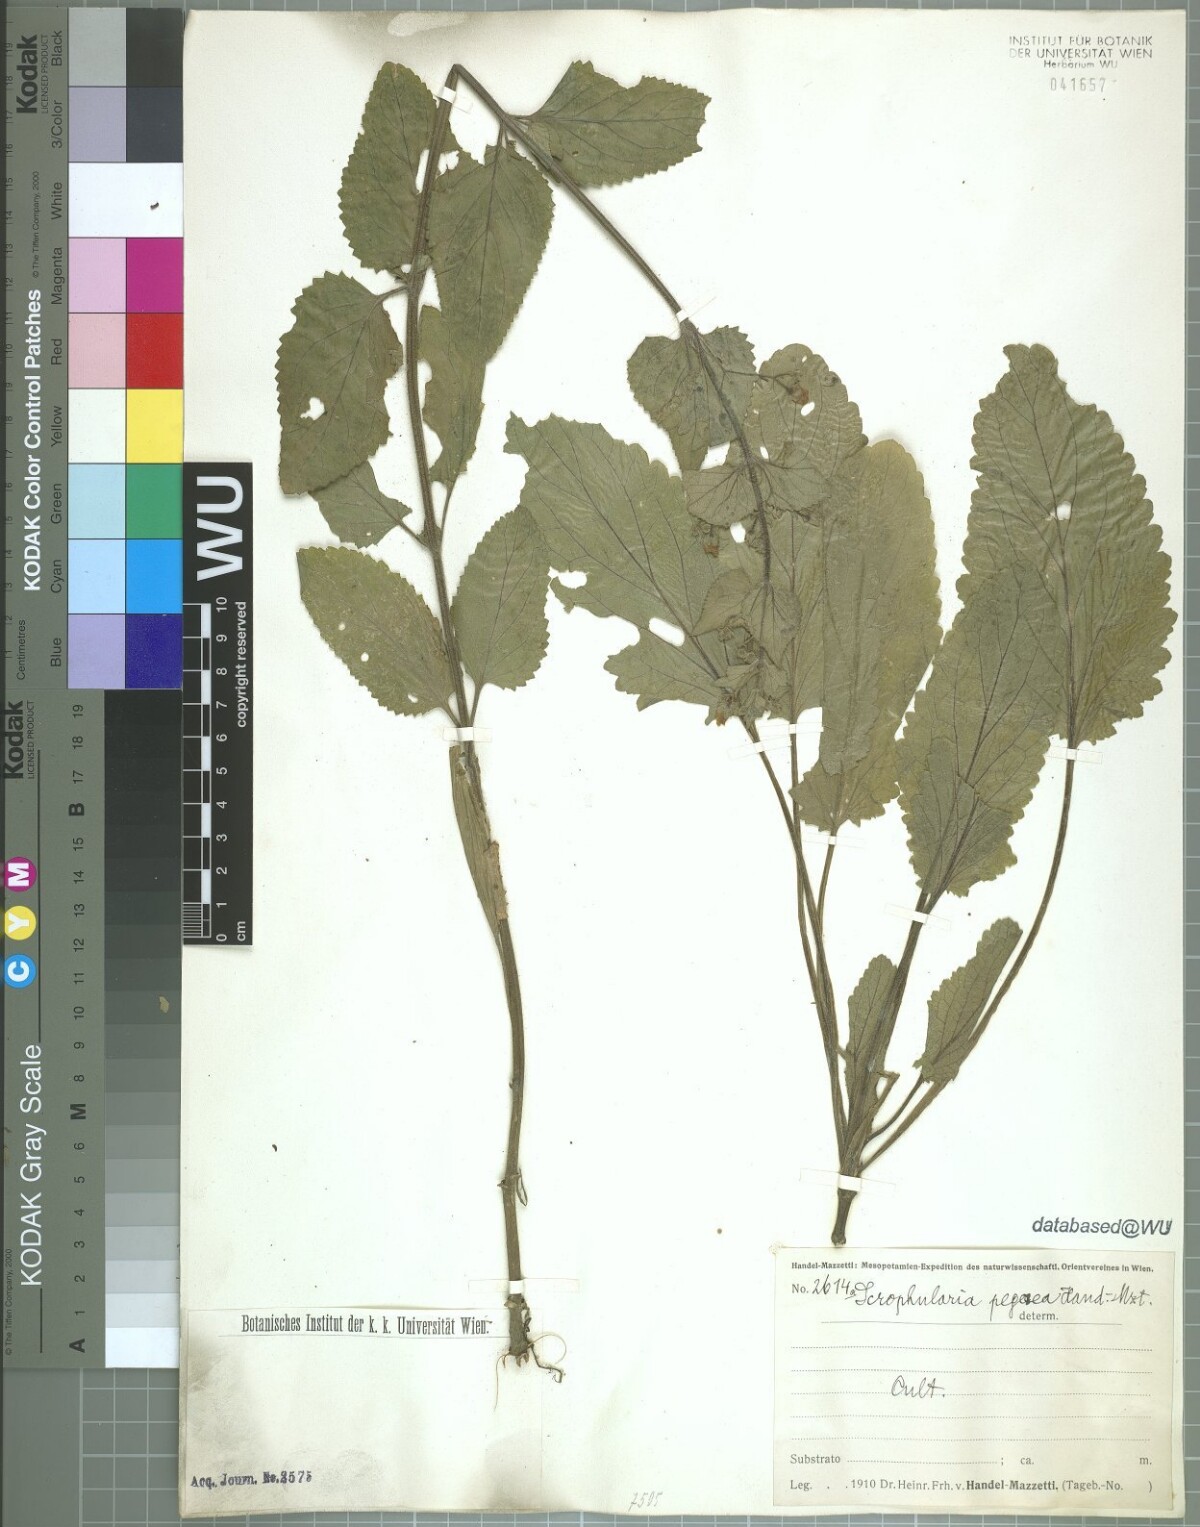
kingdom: Plantae
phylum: Tracheophyta
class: Magnoliopsida
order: Lamiales
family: Scrophulariaceae
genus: Scrophularia
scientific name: Scrophularia pegaea
